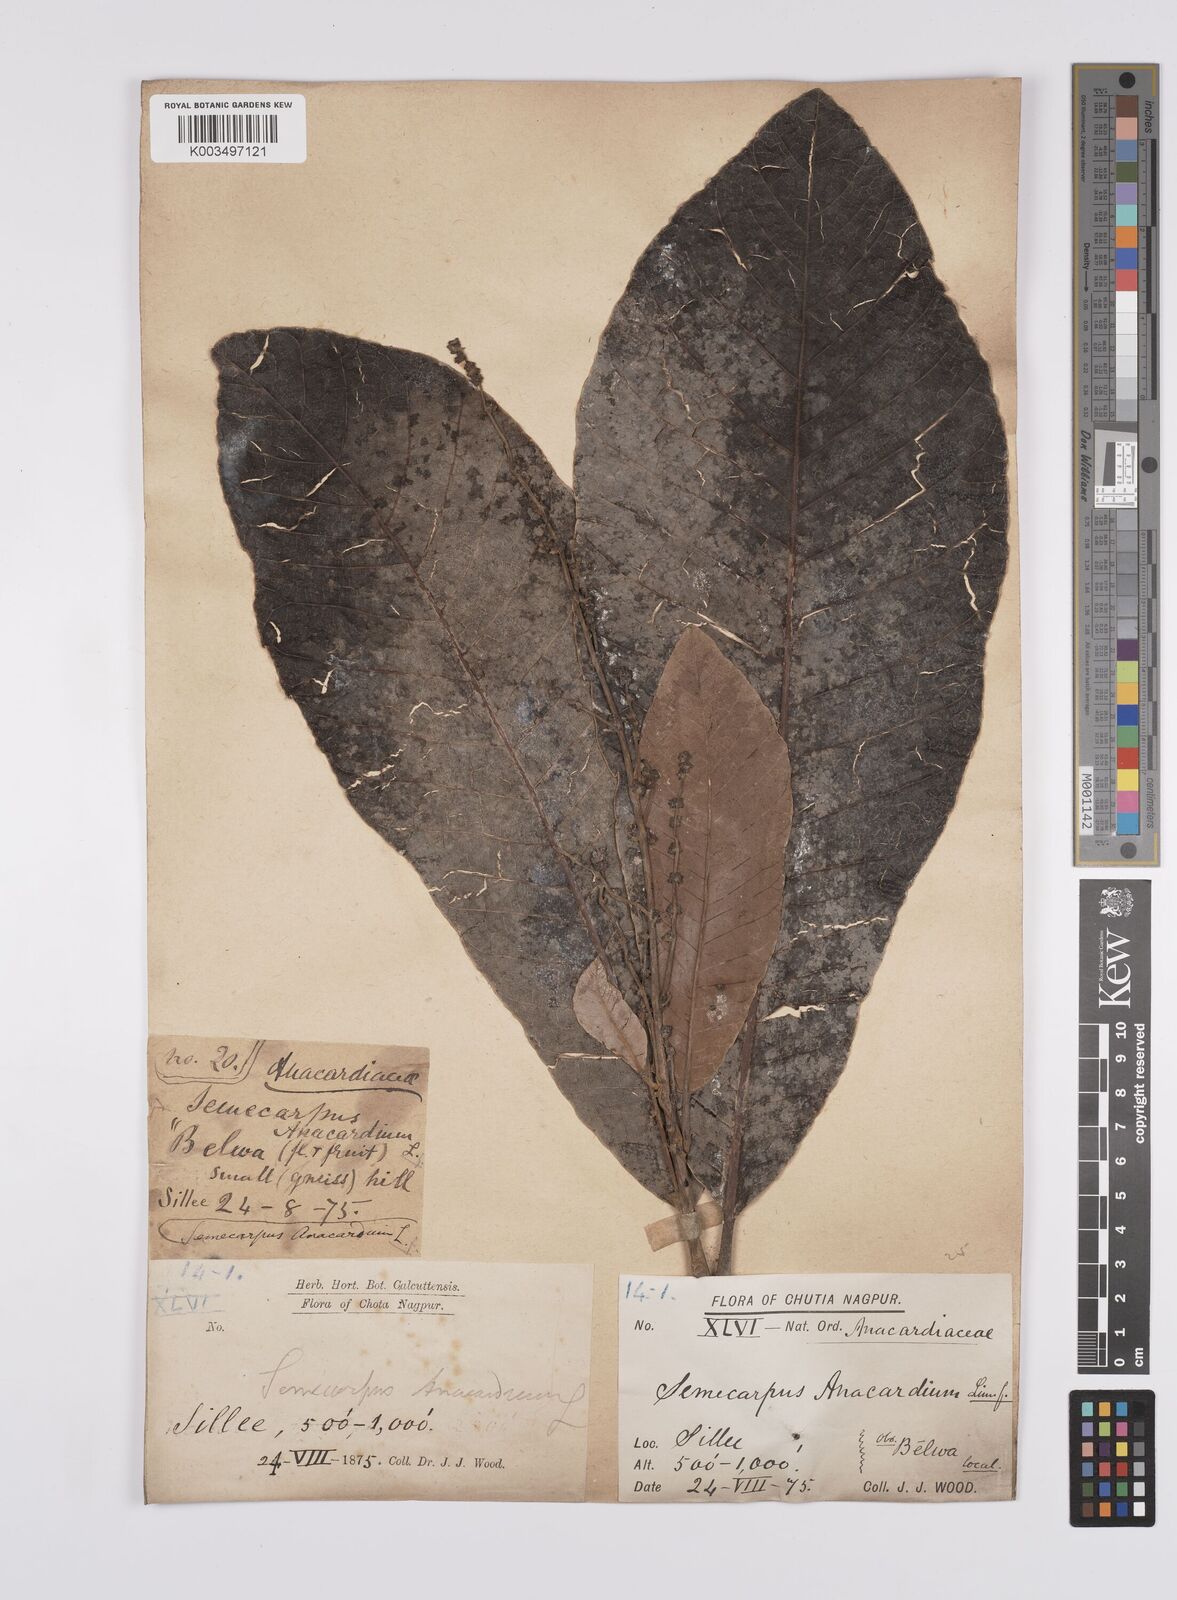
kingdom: Plantae
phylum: Tracheophyta
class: Magnoliopsida
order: Sapindales
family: Anacardiaceae
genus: Semecarpus
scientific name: Semecarpus anacardium
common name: Marking nut-tree
